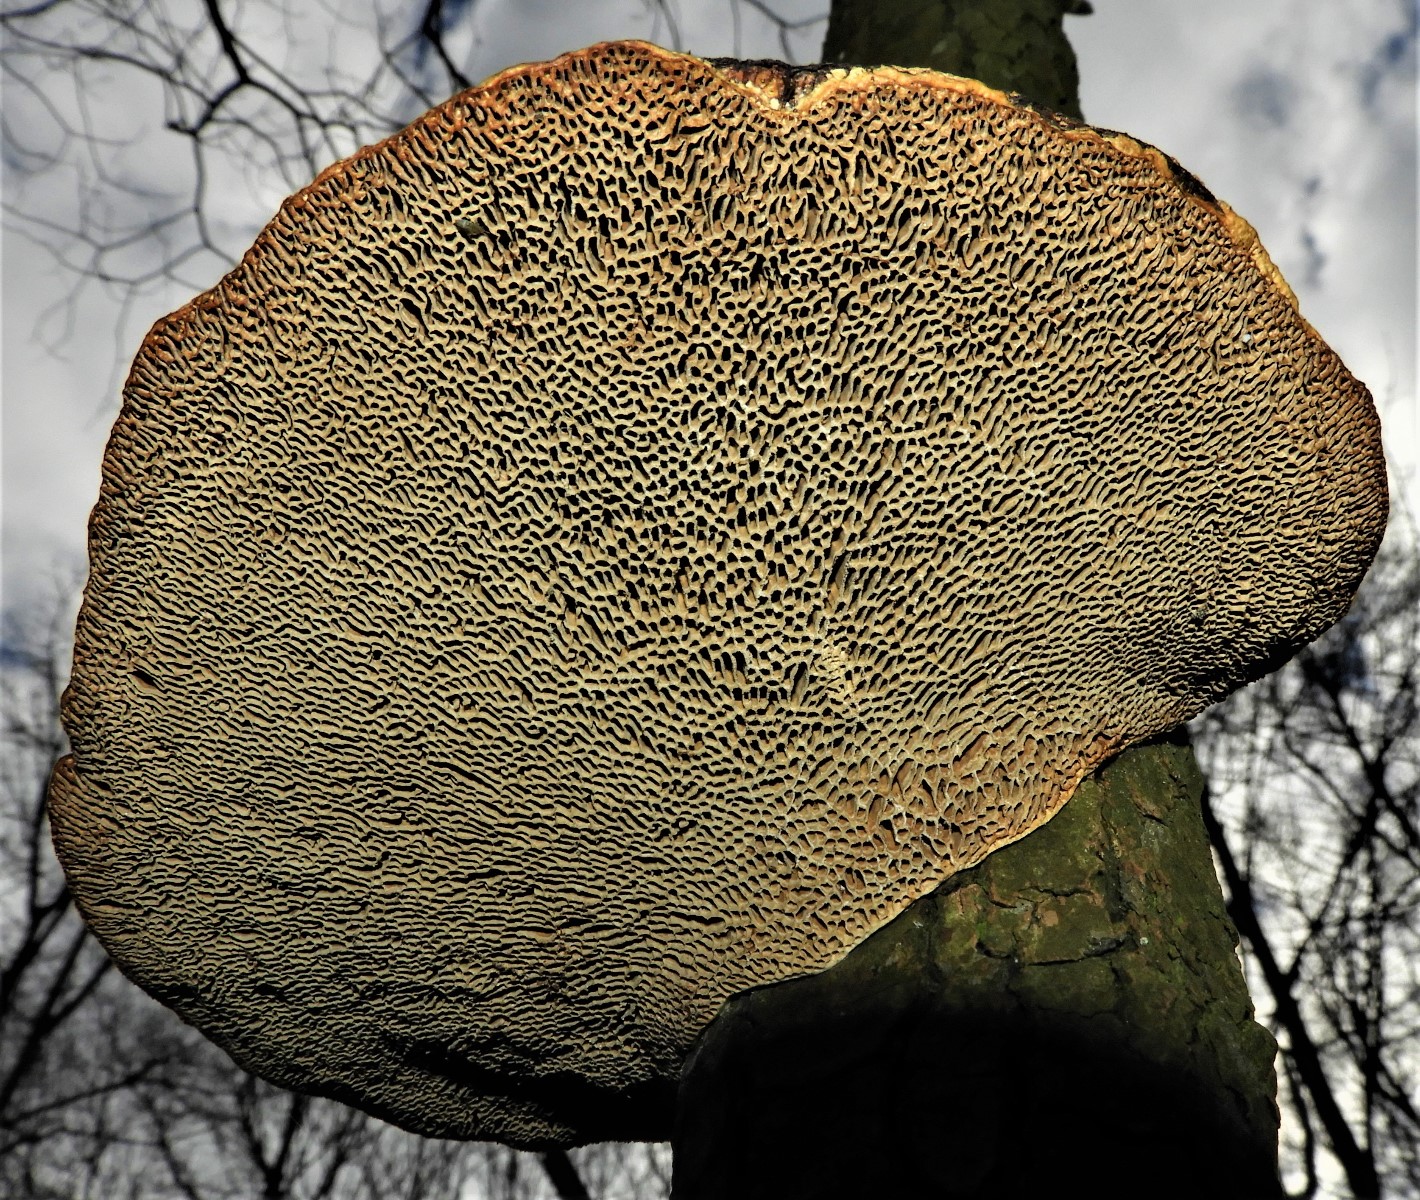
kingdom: Fungi
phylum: Basidiomycota
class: Agaricomycetes
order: Polyporales
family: Polyporaceae
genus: Daedaleopsis
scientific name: Daedaleopsis confragosa
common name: rødmende læderporesvamp
